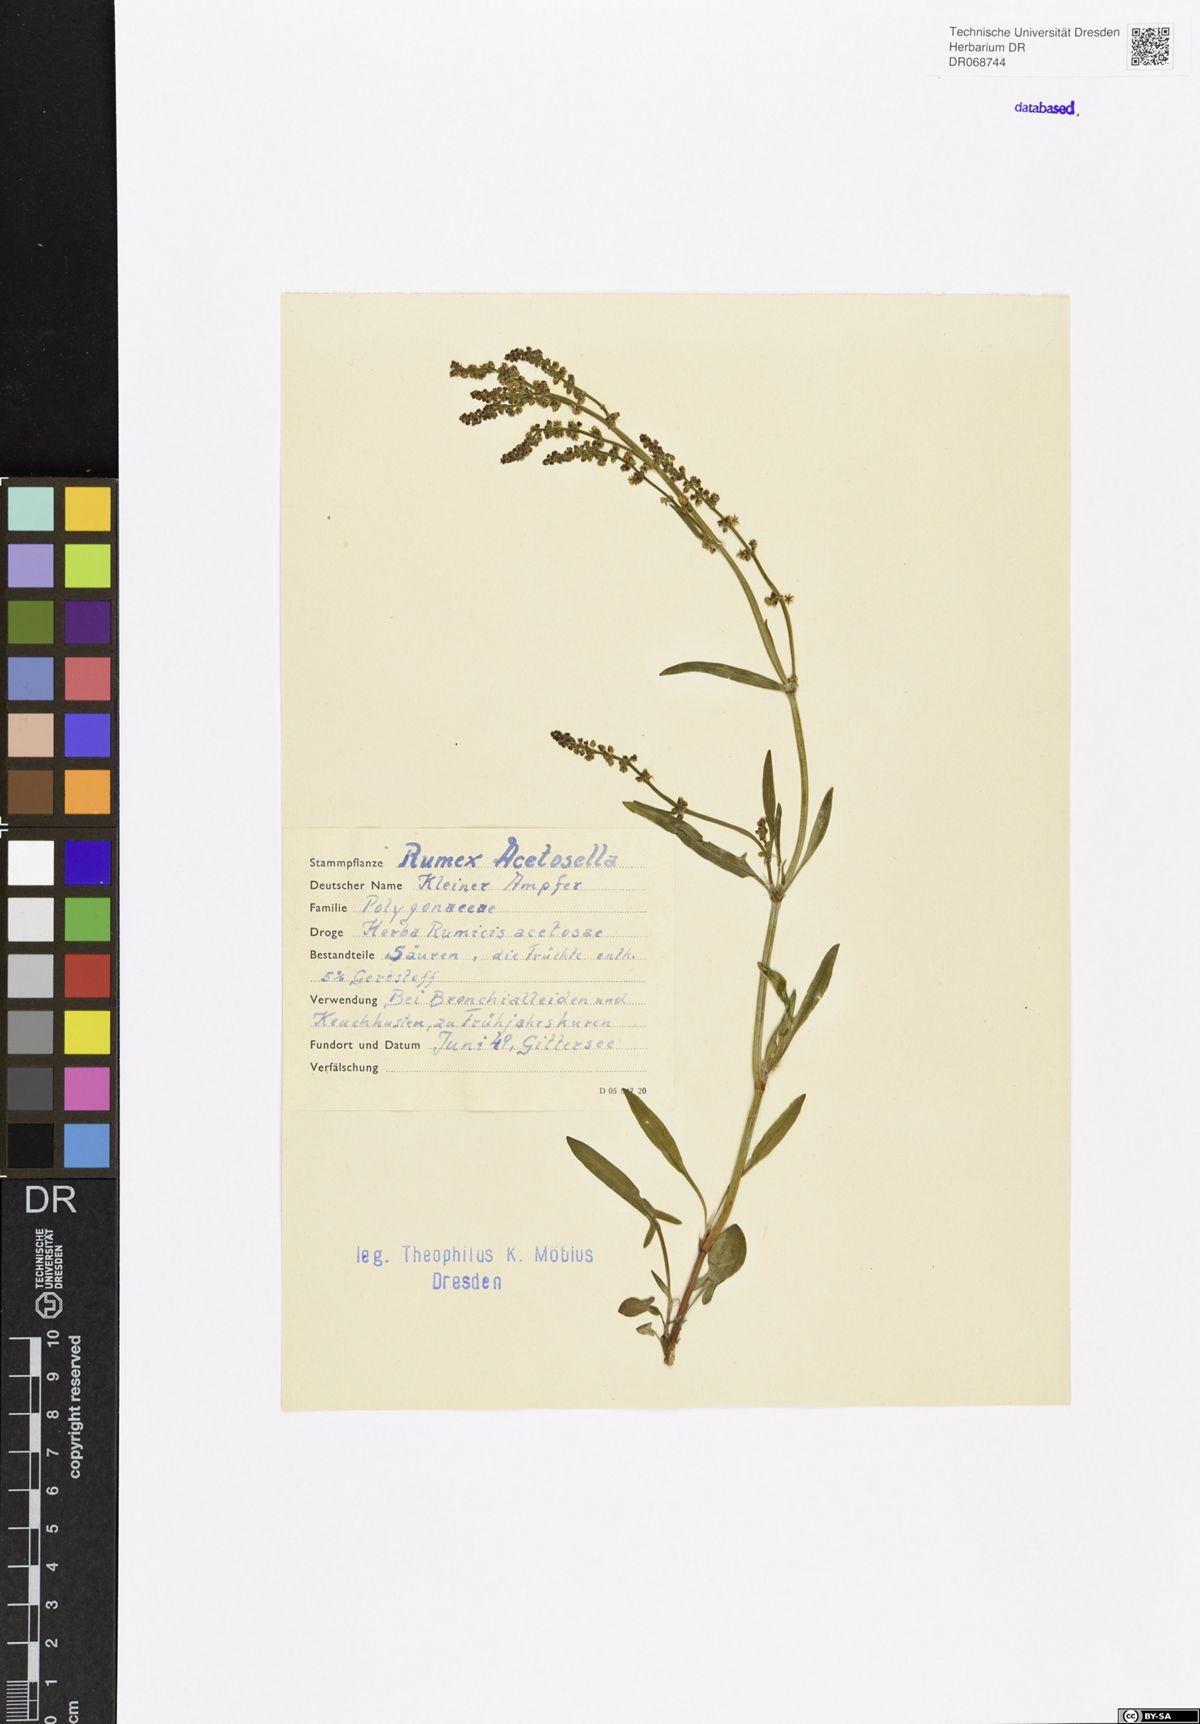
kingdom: Plantae
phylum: Tracheophyta
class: Magnoliopsida
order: Caryophyllales
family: Polygonaceae
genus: Rumex
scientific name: Rumex acetosella
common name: Common sheep sorrel
